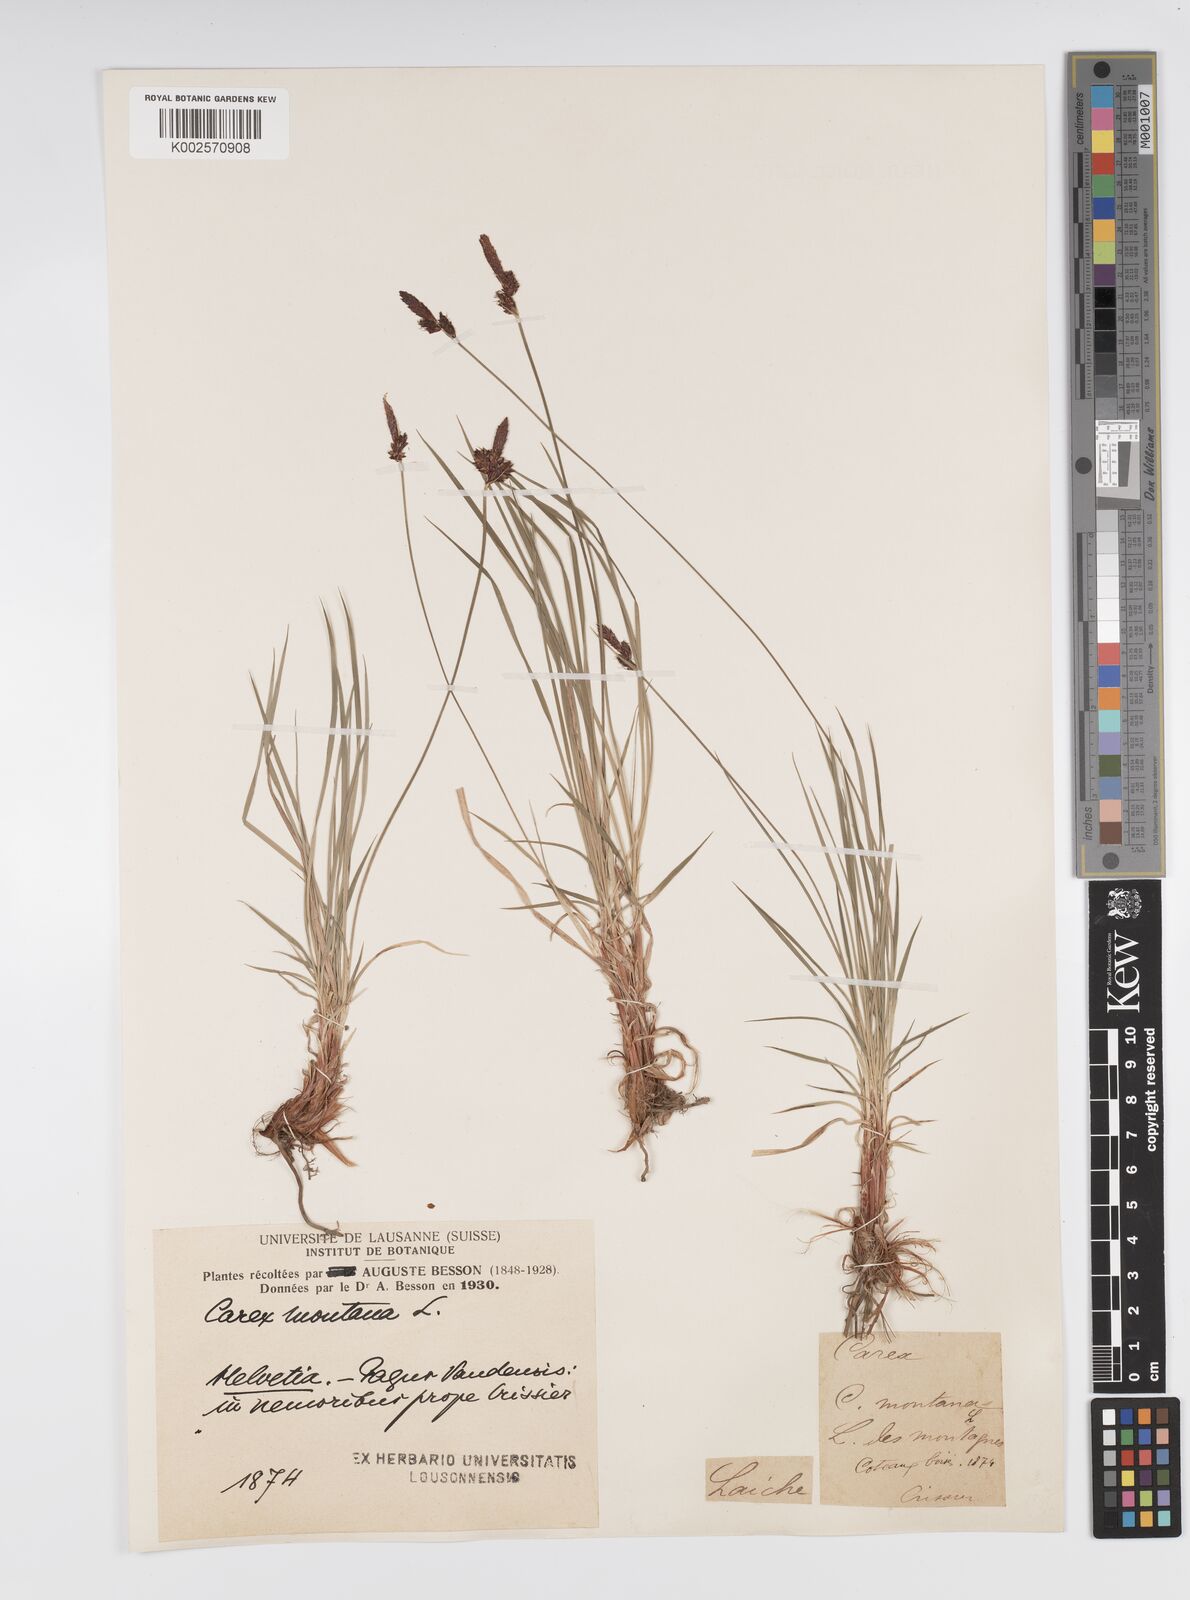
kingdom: Plantae
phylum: Tracheophyta
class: Liliopsida
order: Poales
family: Cyperaceae
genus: Carex
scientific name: Carex montana
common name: Soft-leaved sedge
